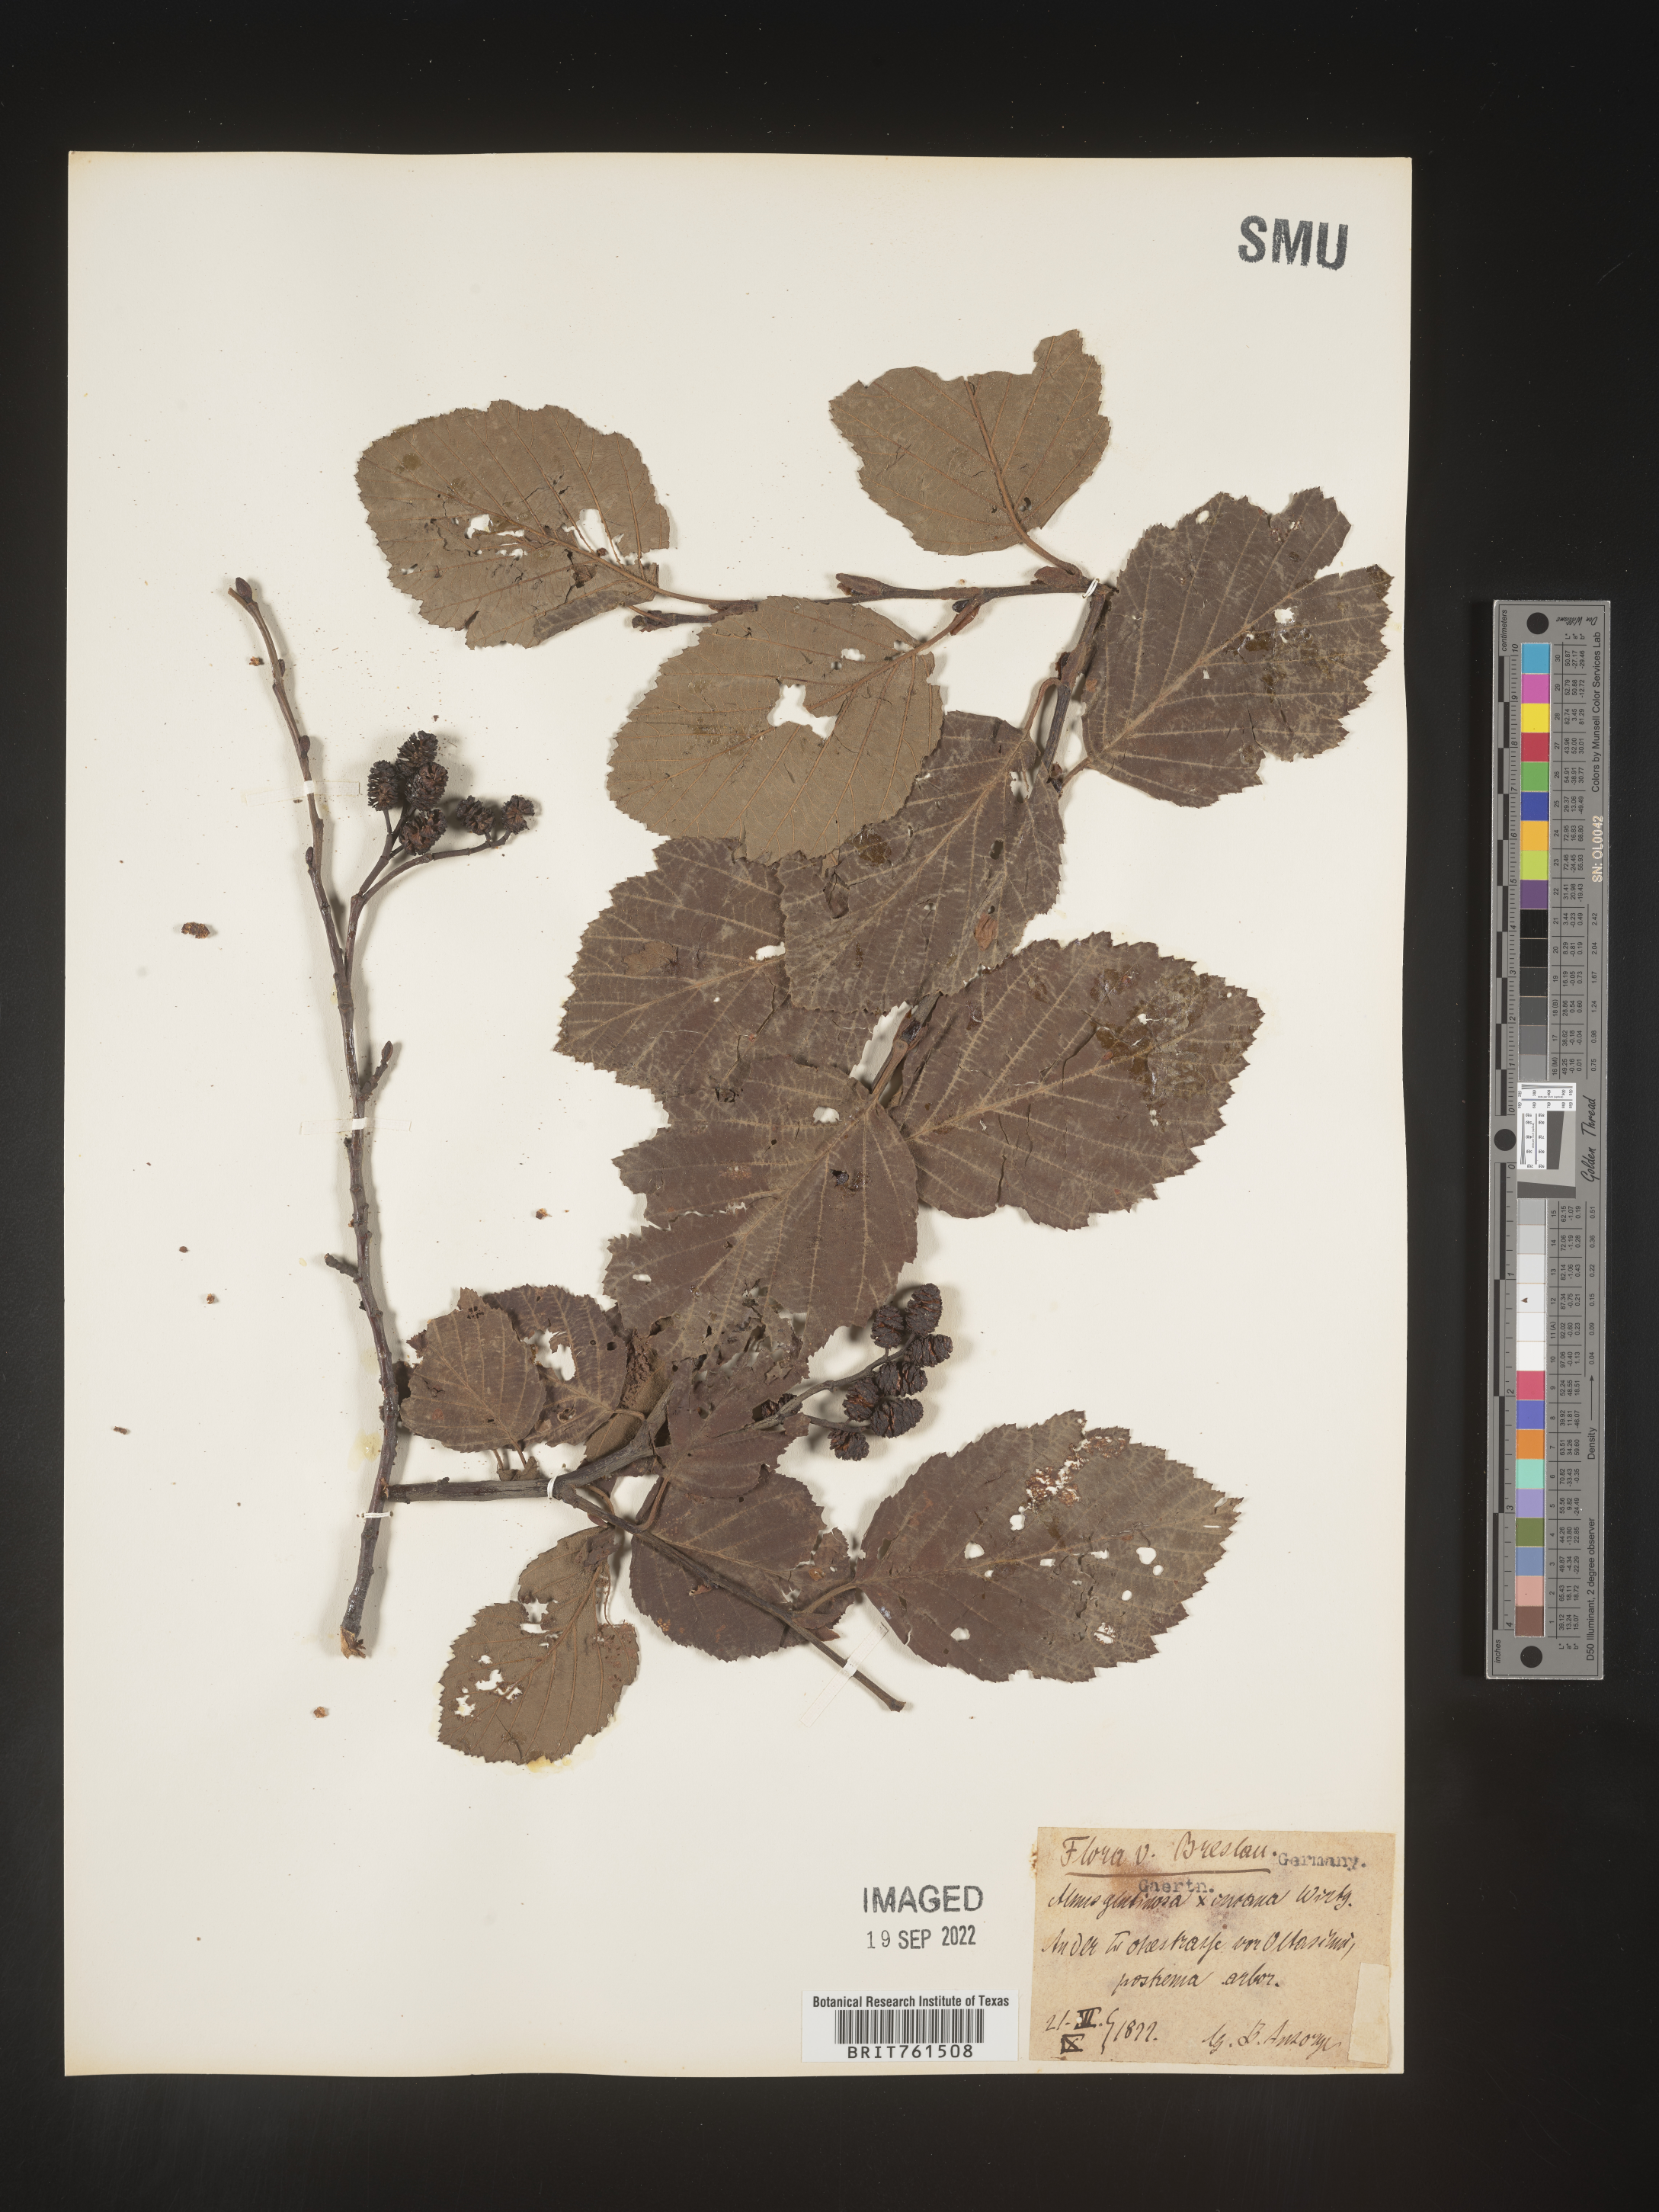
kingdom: Plantae
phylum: Tracheophyta
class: Magnoliopsida
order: Fagales
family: Betulaceae
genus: Alnus
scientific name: Alnus
